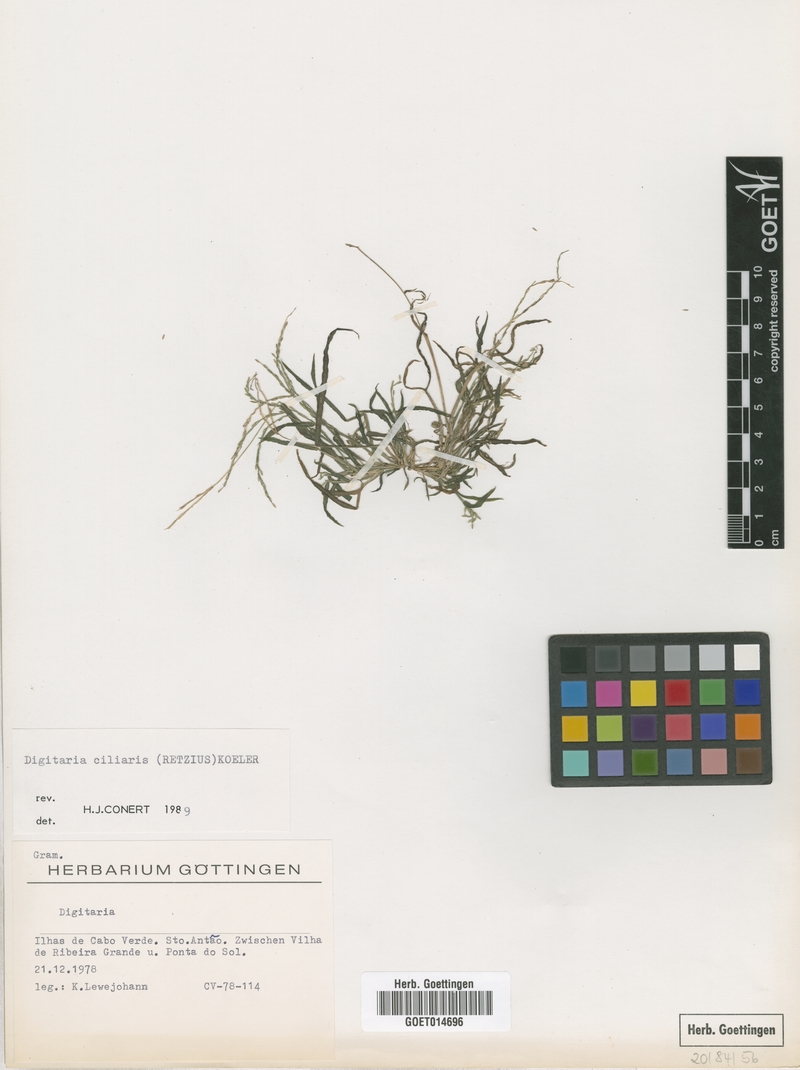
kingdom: Plantae
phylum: Tracheophyta
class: Liliopsida
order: Poales
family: Poaceae
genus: Digitaria
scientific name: Digitaria ciliaris
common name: Tropical finger-grass
